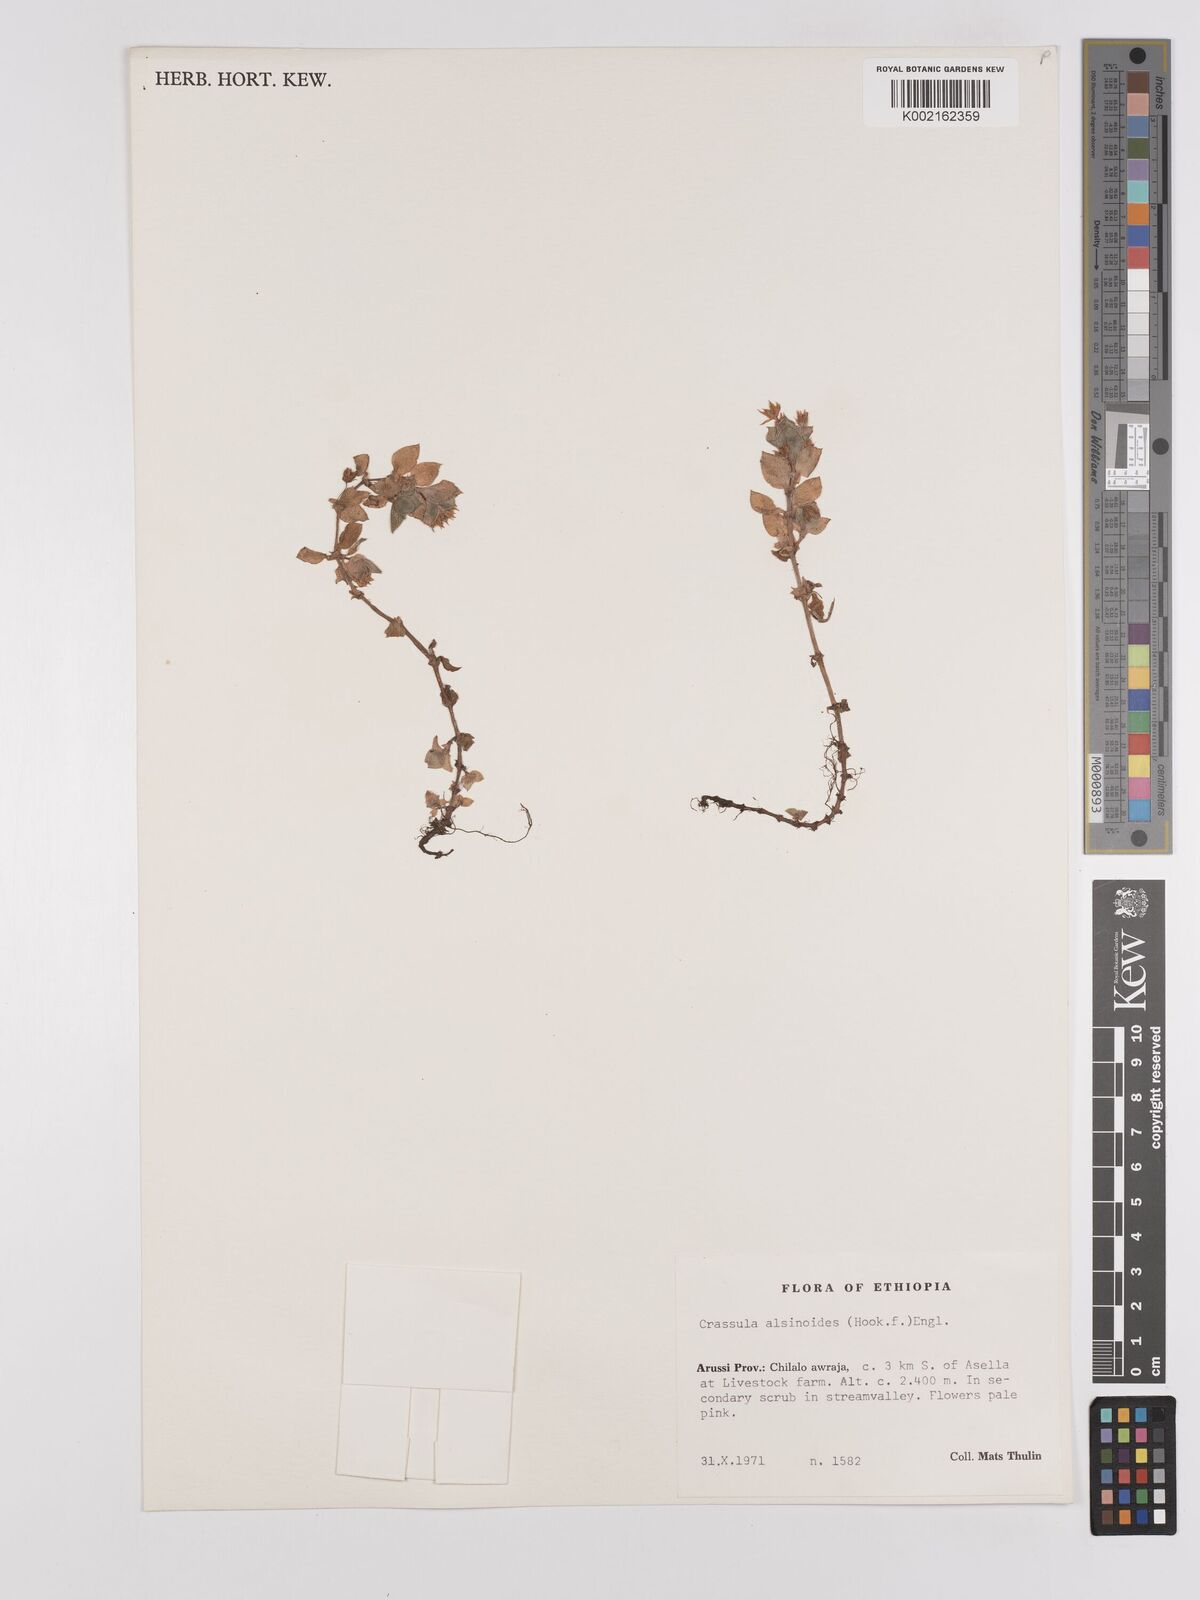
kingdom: Plantae
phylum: Tracheophyta
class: Magnoliopsida
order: Saxifragales
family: Crassulaceae
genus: Crassula
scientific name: Crassula alsinoides
